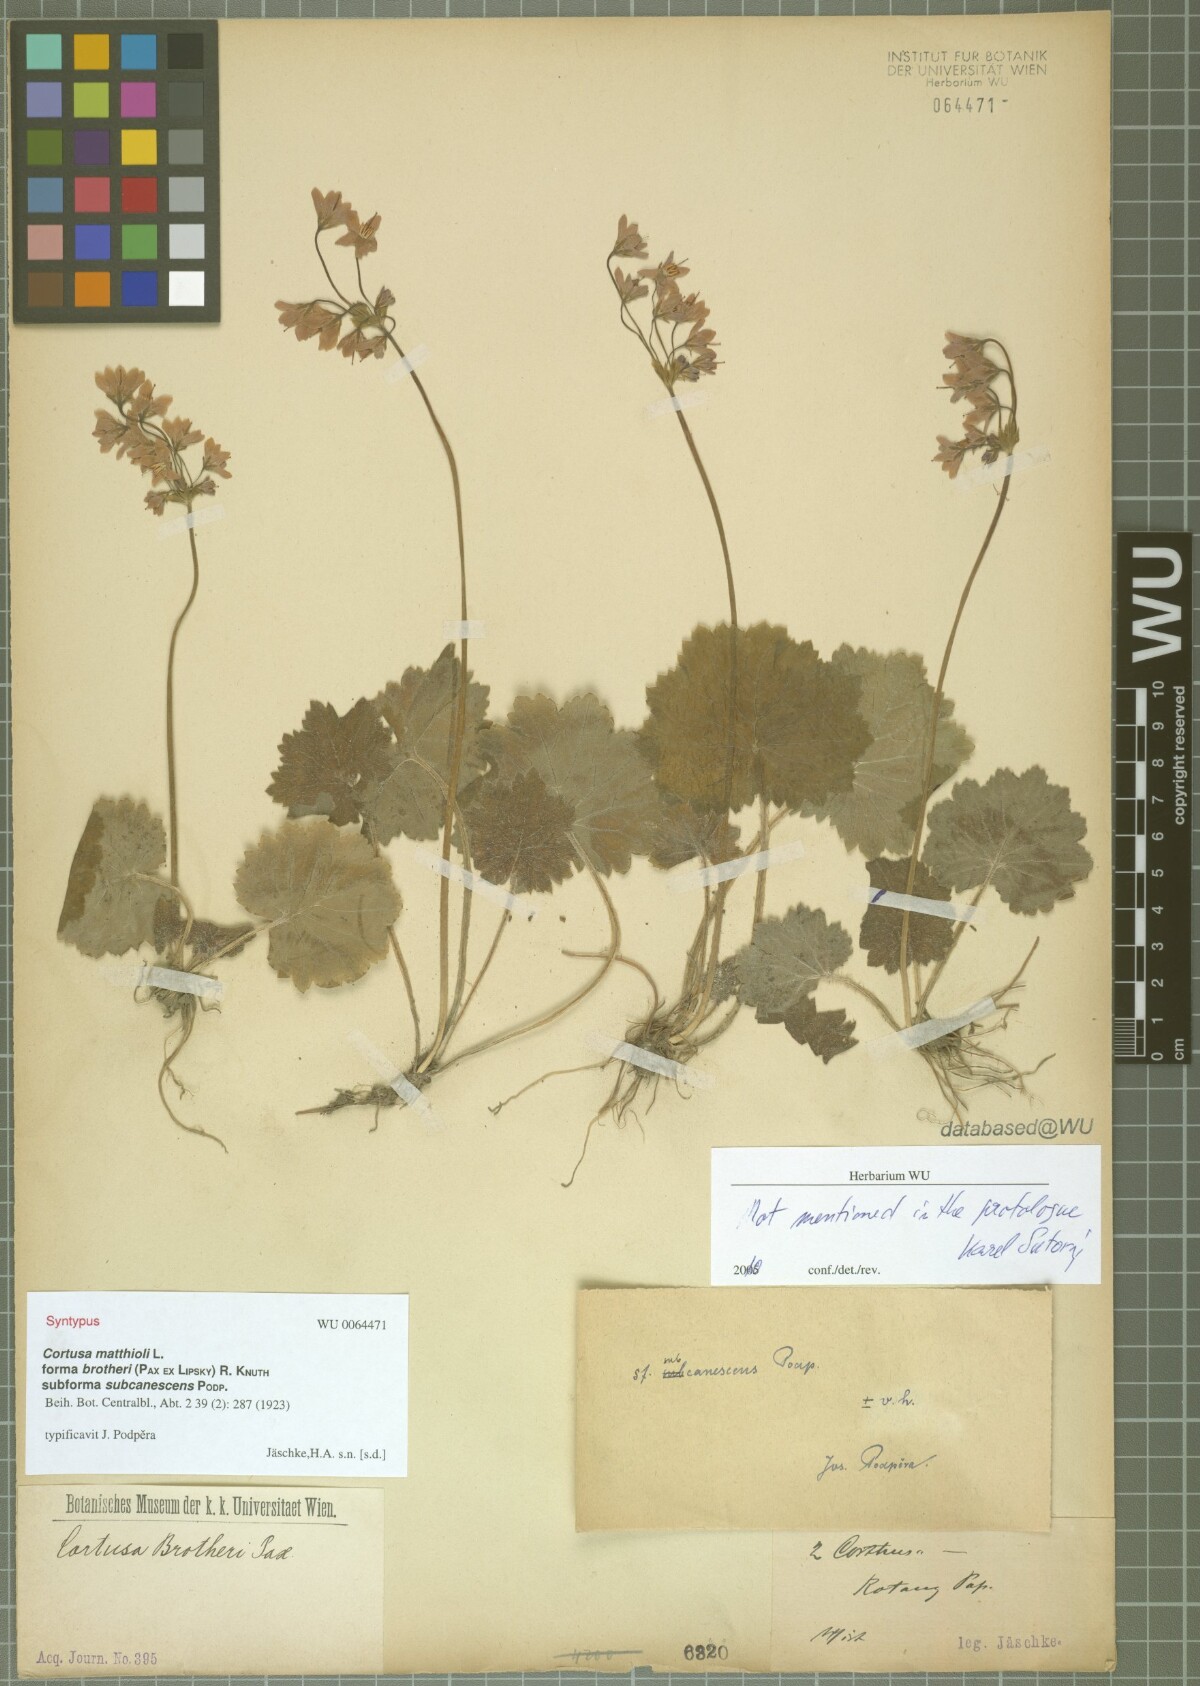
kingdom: Plantae
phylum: Tracheophyta
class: Magnoliopsida
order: Ericales
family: Primulaceae
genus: Primula
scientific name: Primula matthioli
